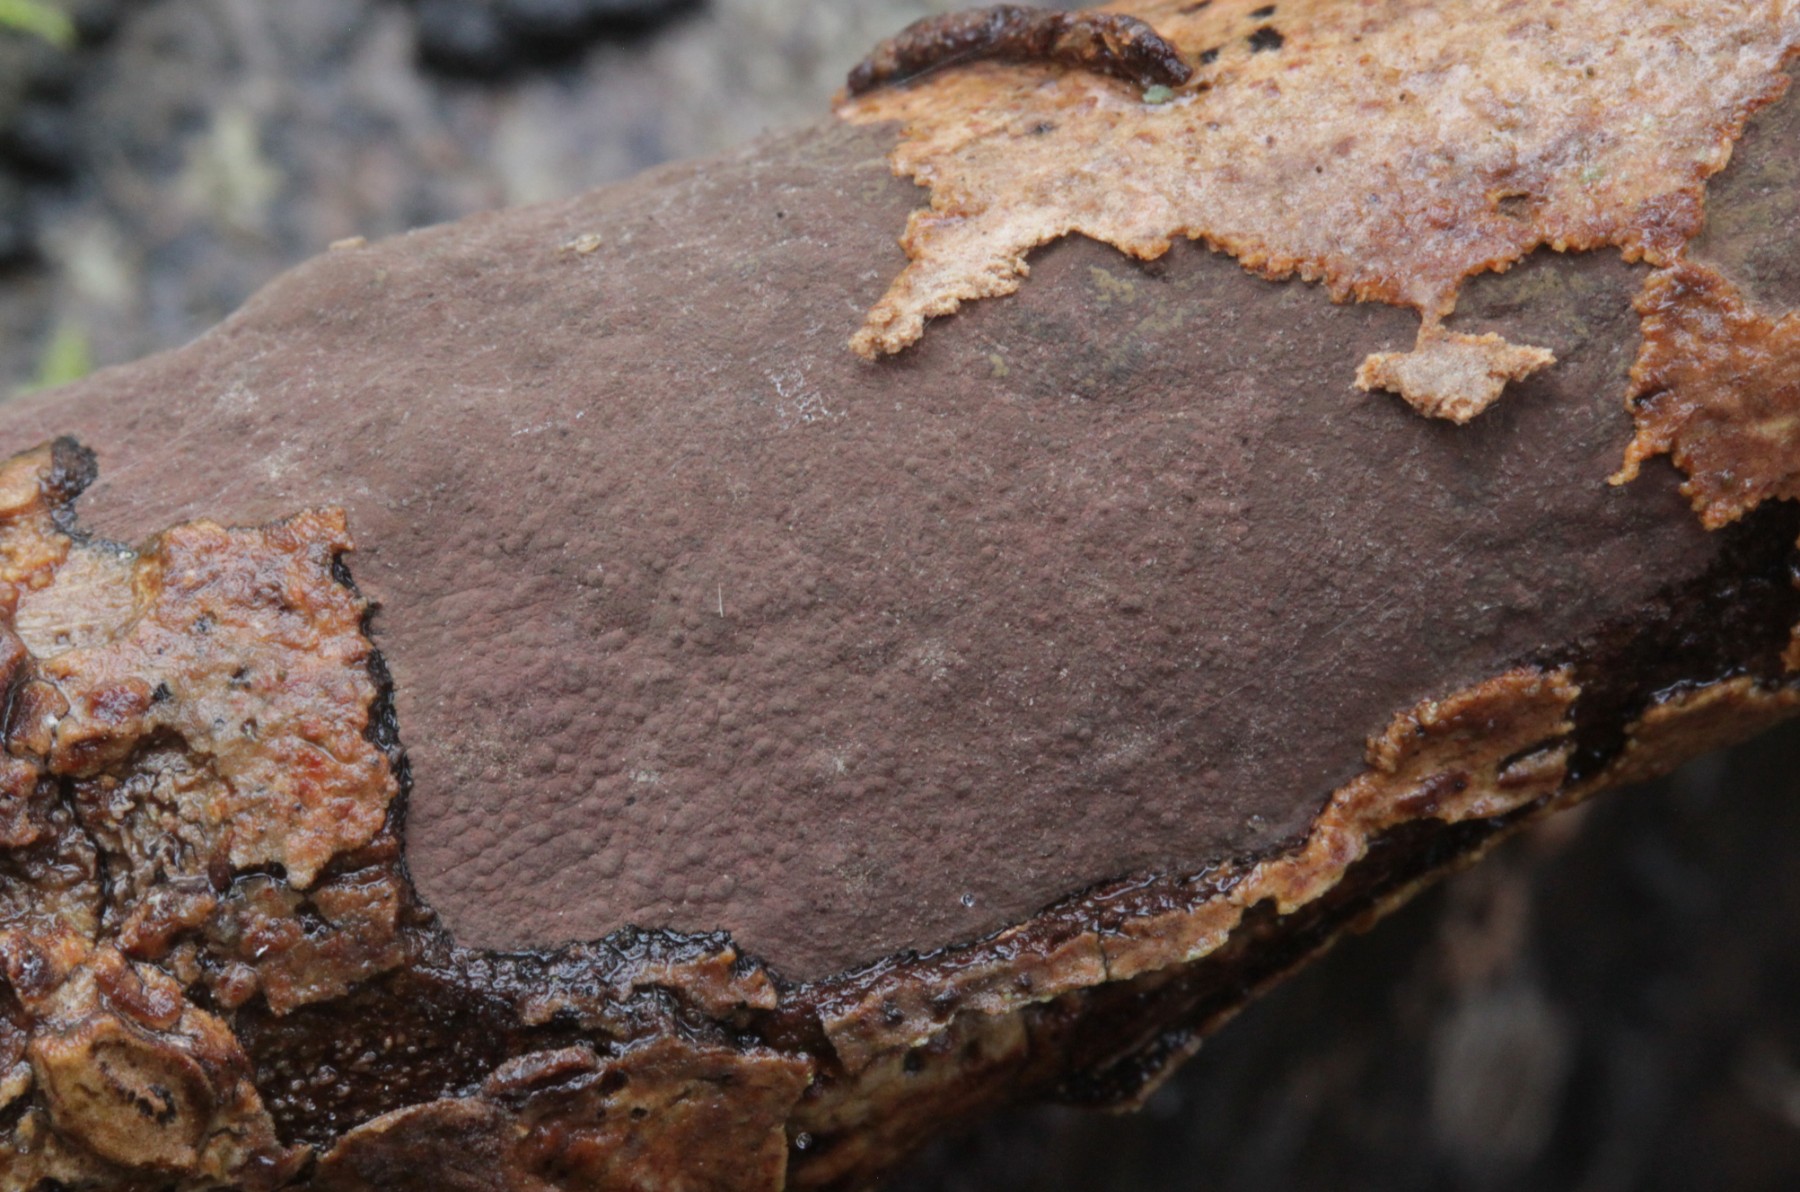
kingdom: Fungi
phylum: Ascomycota
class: Sordariomycetes
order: Xylariales
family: Hypoxylaceae
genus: Hypoxylon
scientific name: Hypoxylon petriniae
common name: nedsænket kulbær
